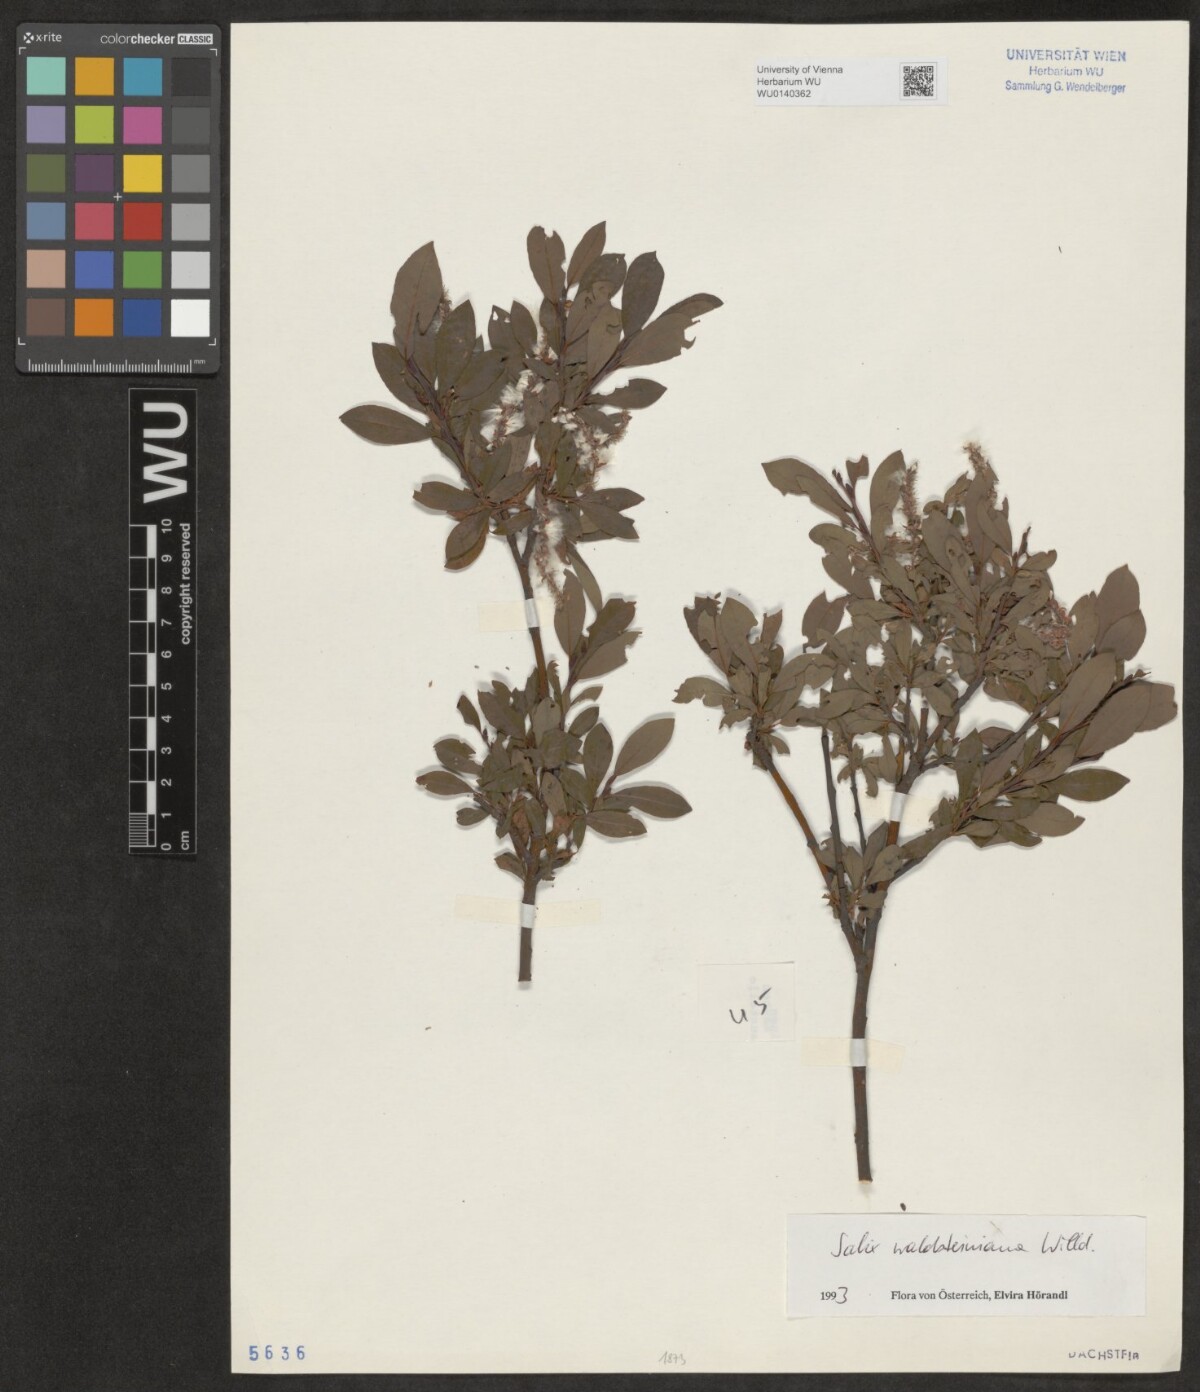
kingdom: Plantae
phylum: Tracheophyta
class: Magnoliopsida
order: Malpighiales
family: Salicaceae
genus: Salix
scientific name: Salix waldsteiniana
